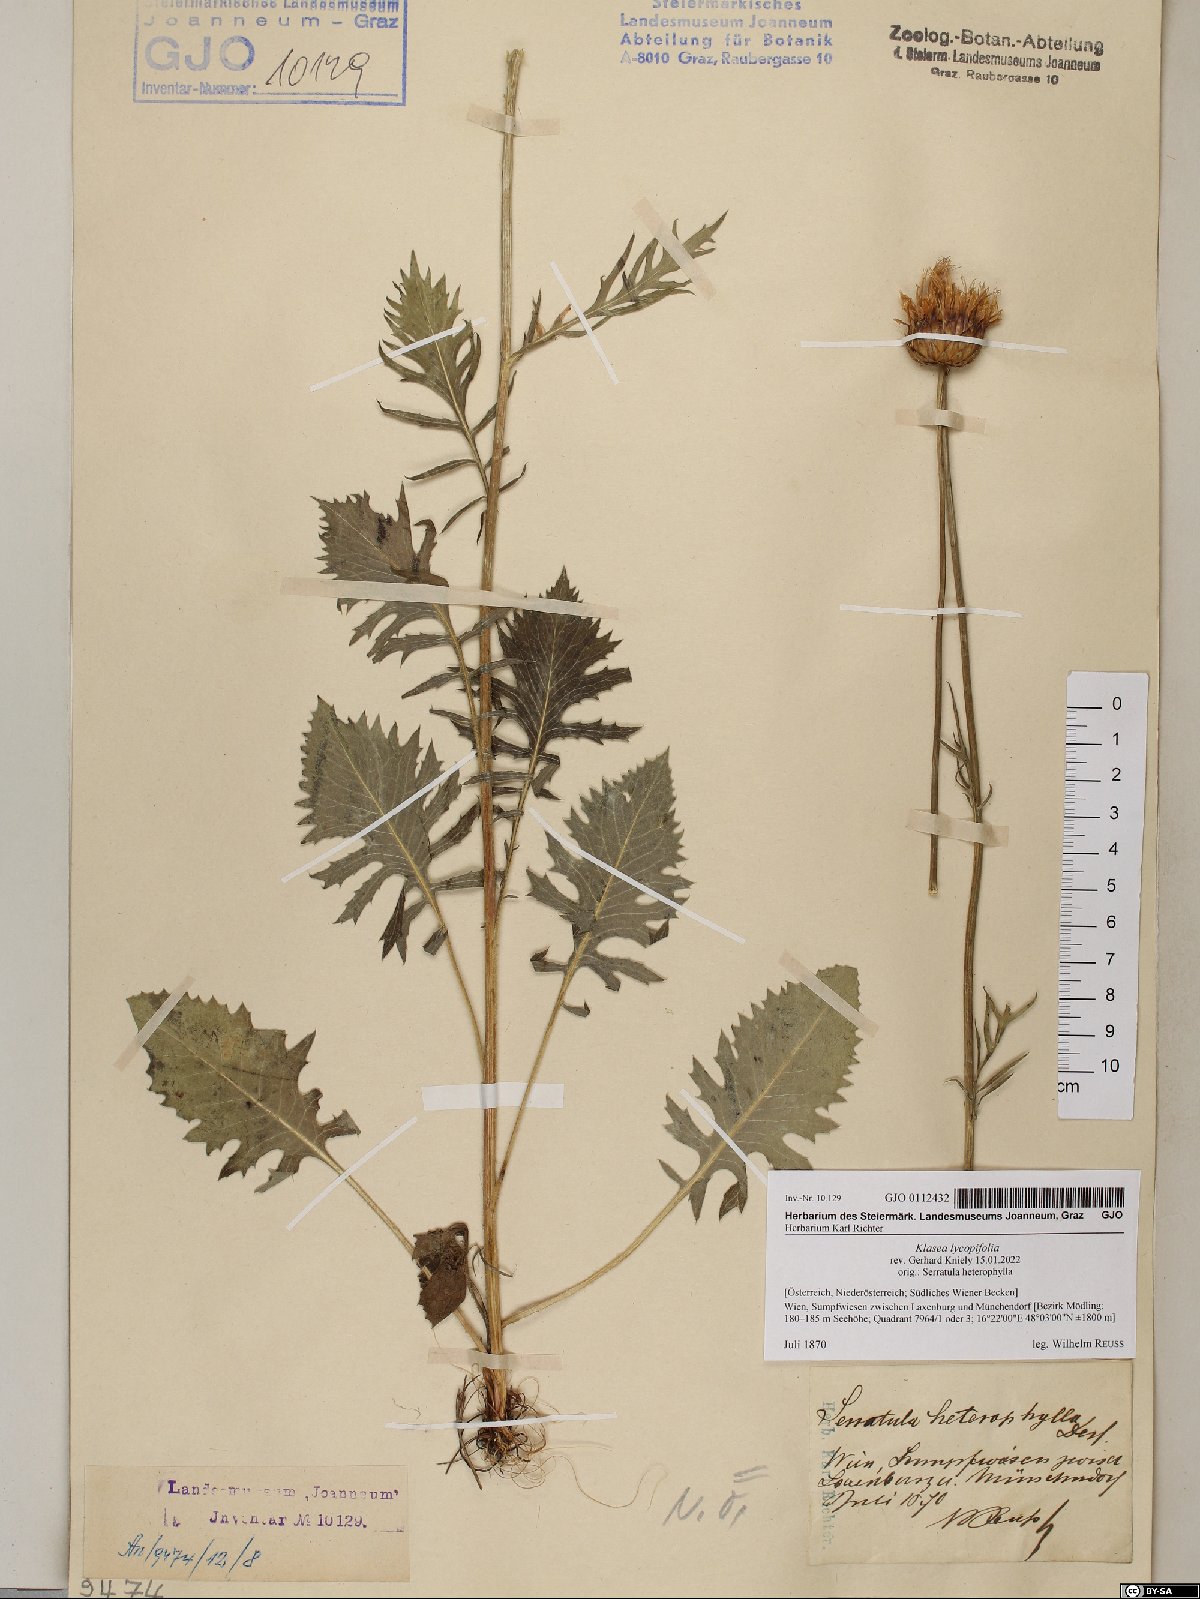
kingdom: Plantae
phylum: Tracheophyta
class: Magnoliopsida
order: Asterales
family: Asteraceae
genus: Klasea
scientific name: Klasea lycopifolia
